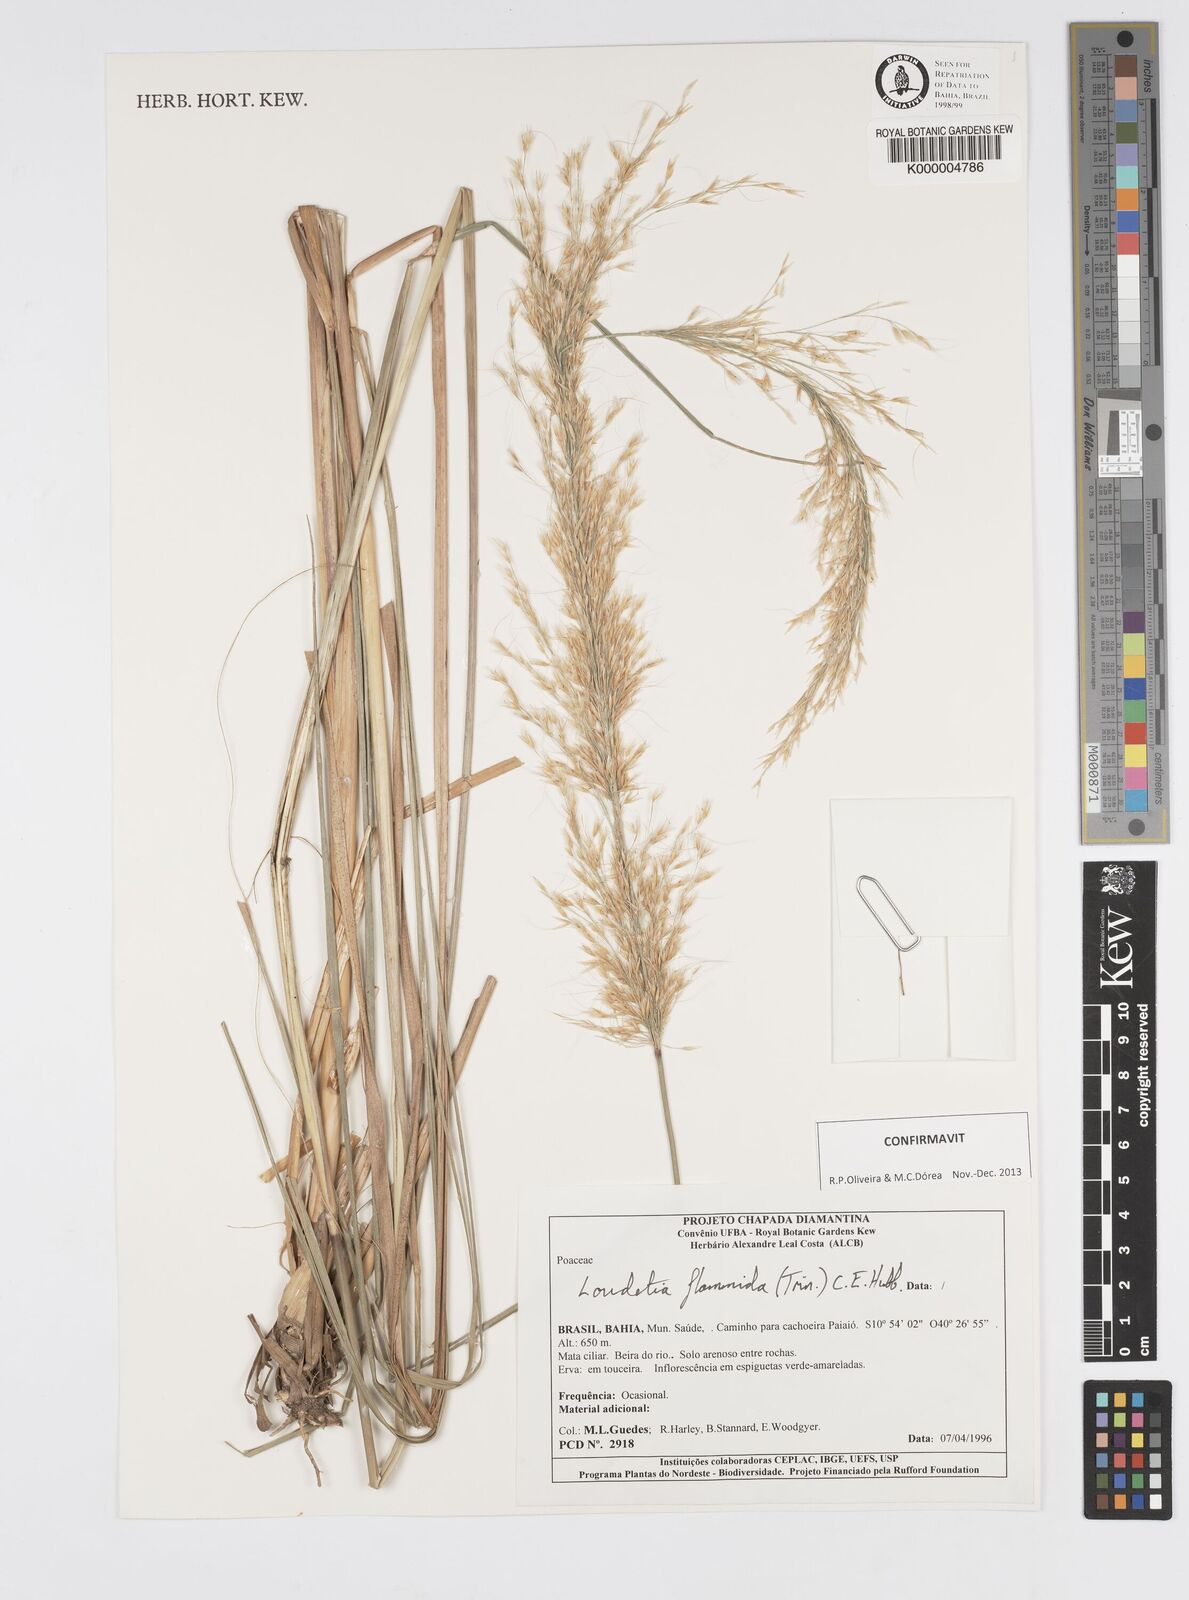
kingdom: Plantae
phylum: Tracheophyta
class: Liliopsida
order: Poales
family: Poaceae
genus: Loudetia
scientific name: Loudetia flammida
